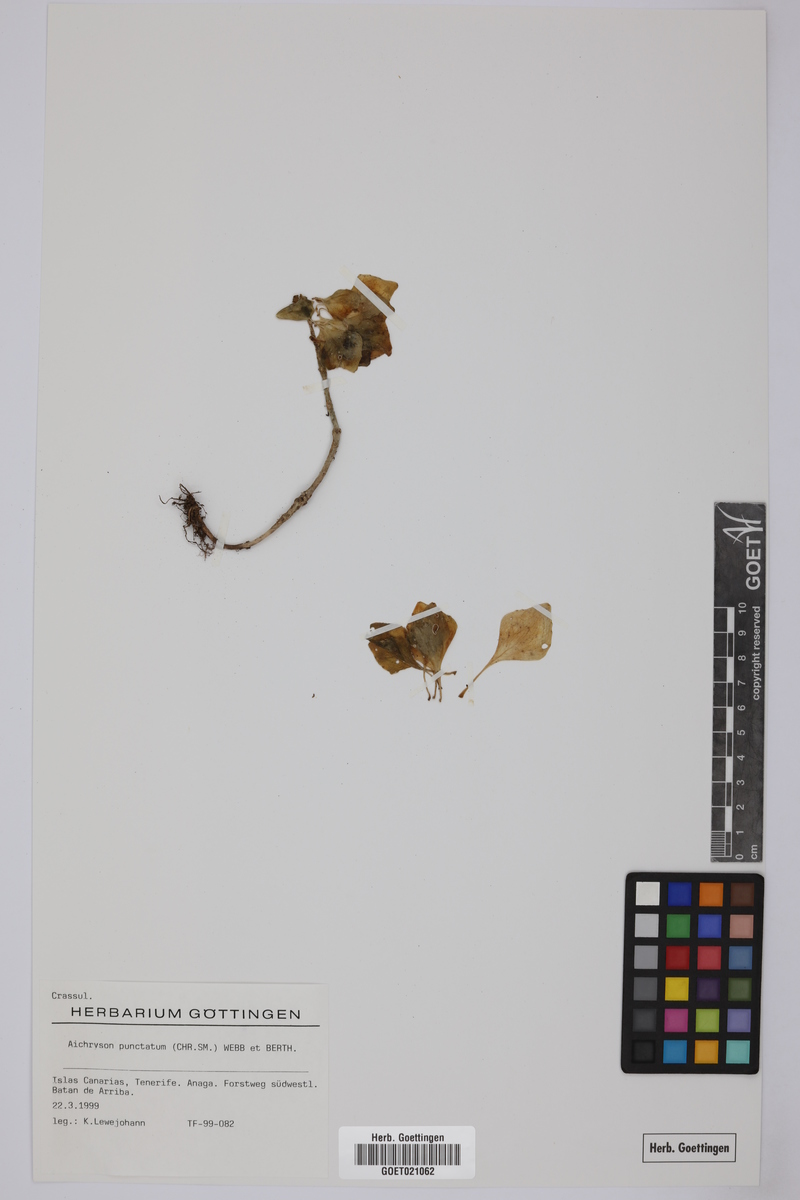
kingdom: Plantae
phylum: Tracheophyta
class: Magnoliopsida
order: Saxifragales
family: Crassulaceae
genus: Aichryson
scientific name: Aichryson punctatum
